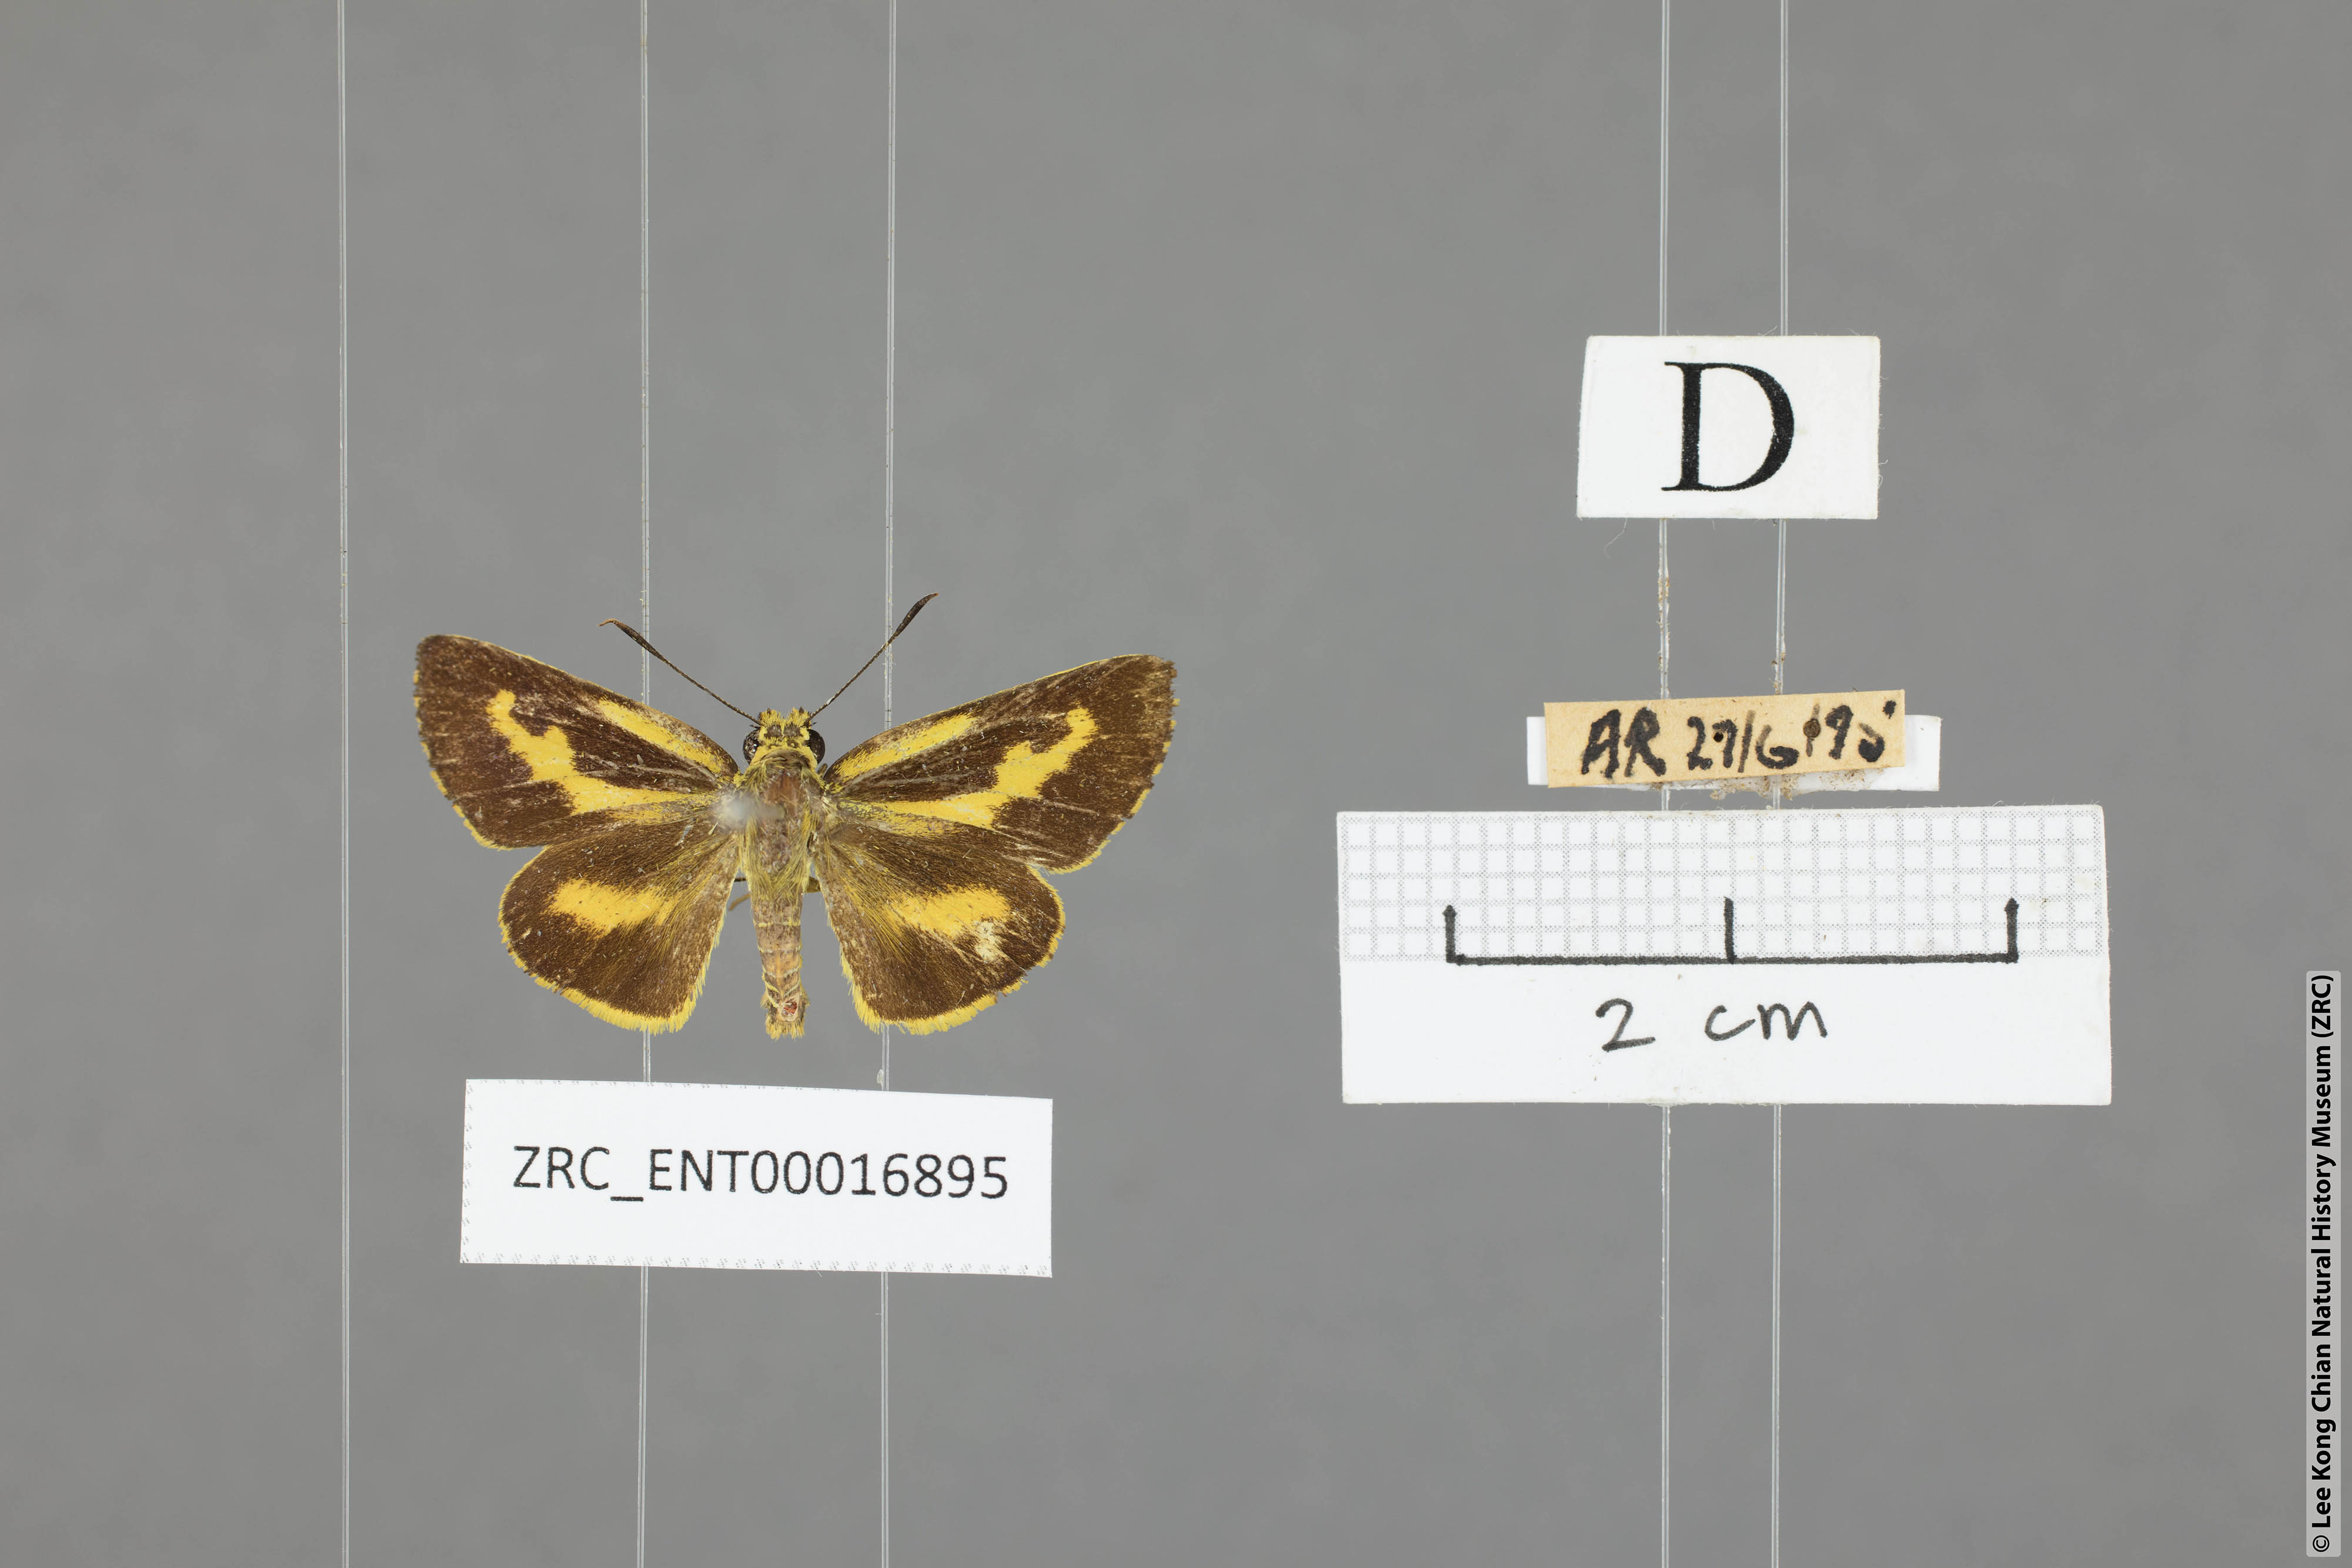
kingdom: Animalia
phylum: Arthropoda
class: Insecta
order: Lepidoptera
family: Hesperiidae
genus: Cupitha
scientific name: Cupitha purreea
